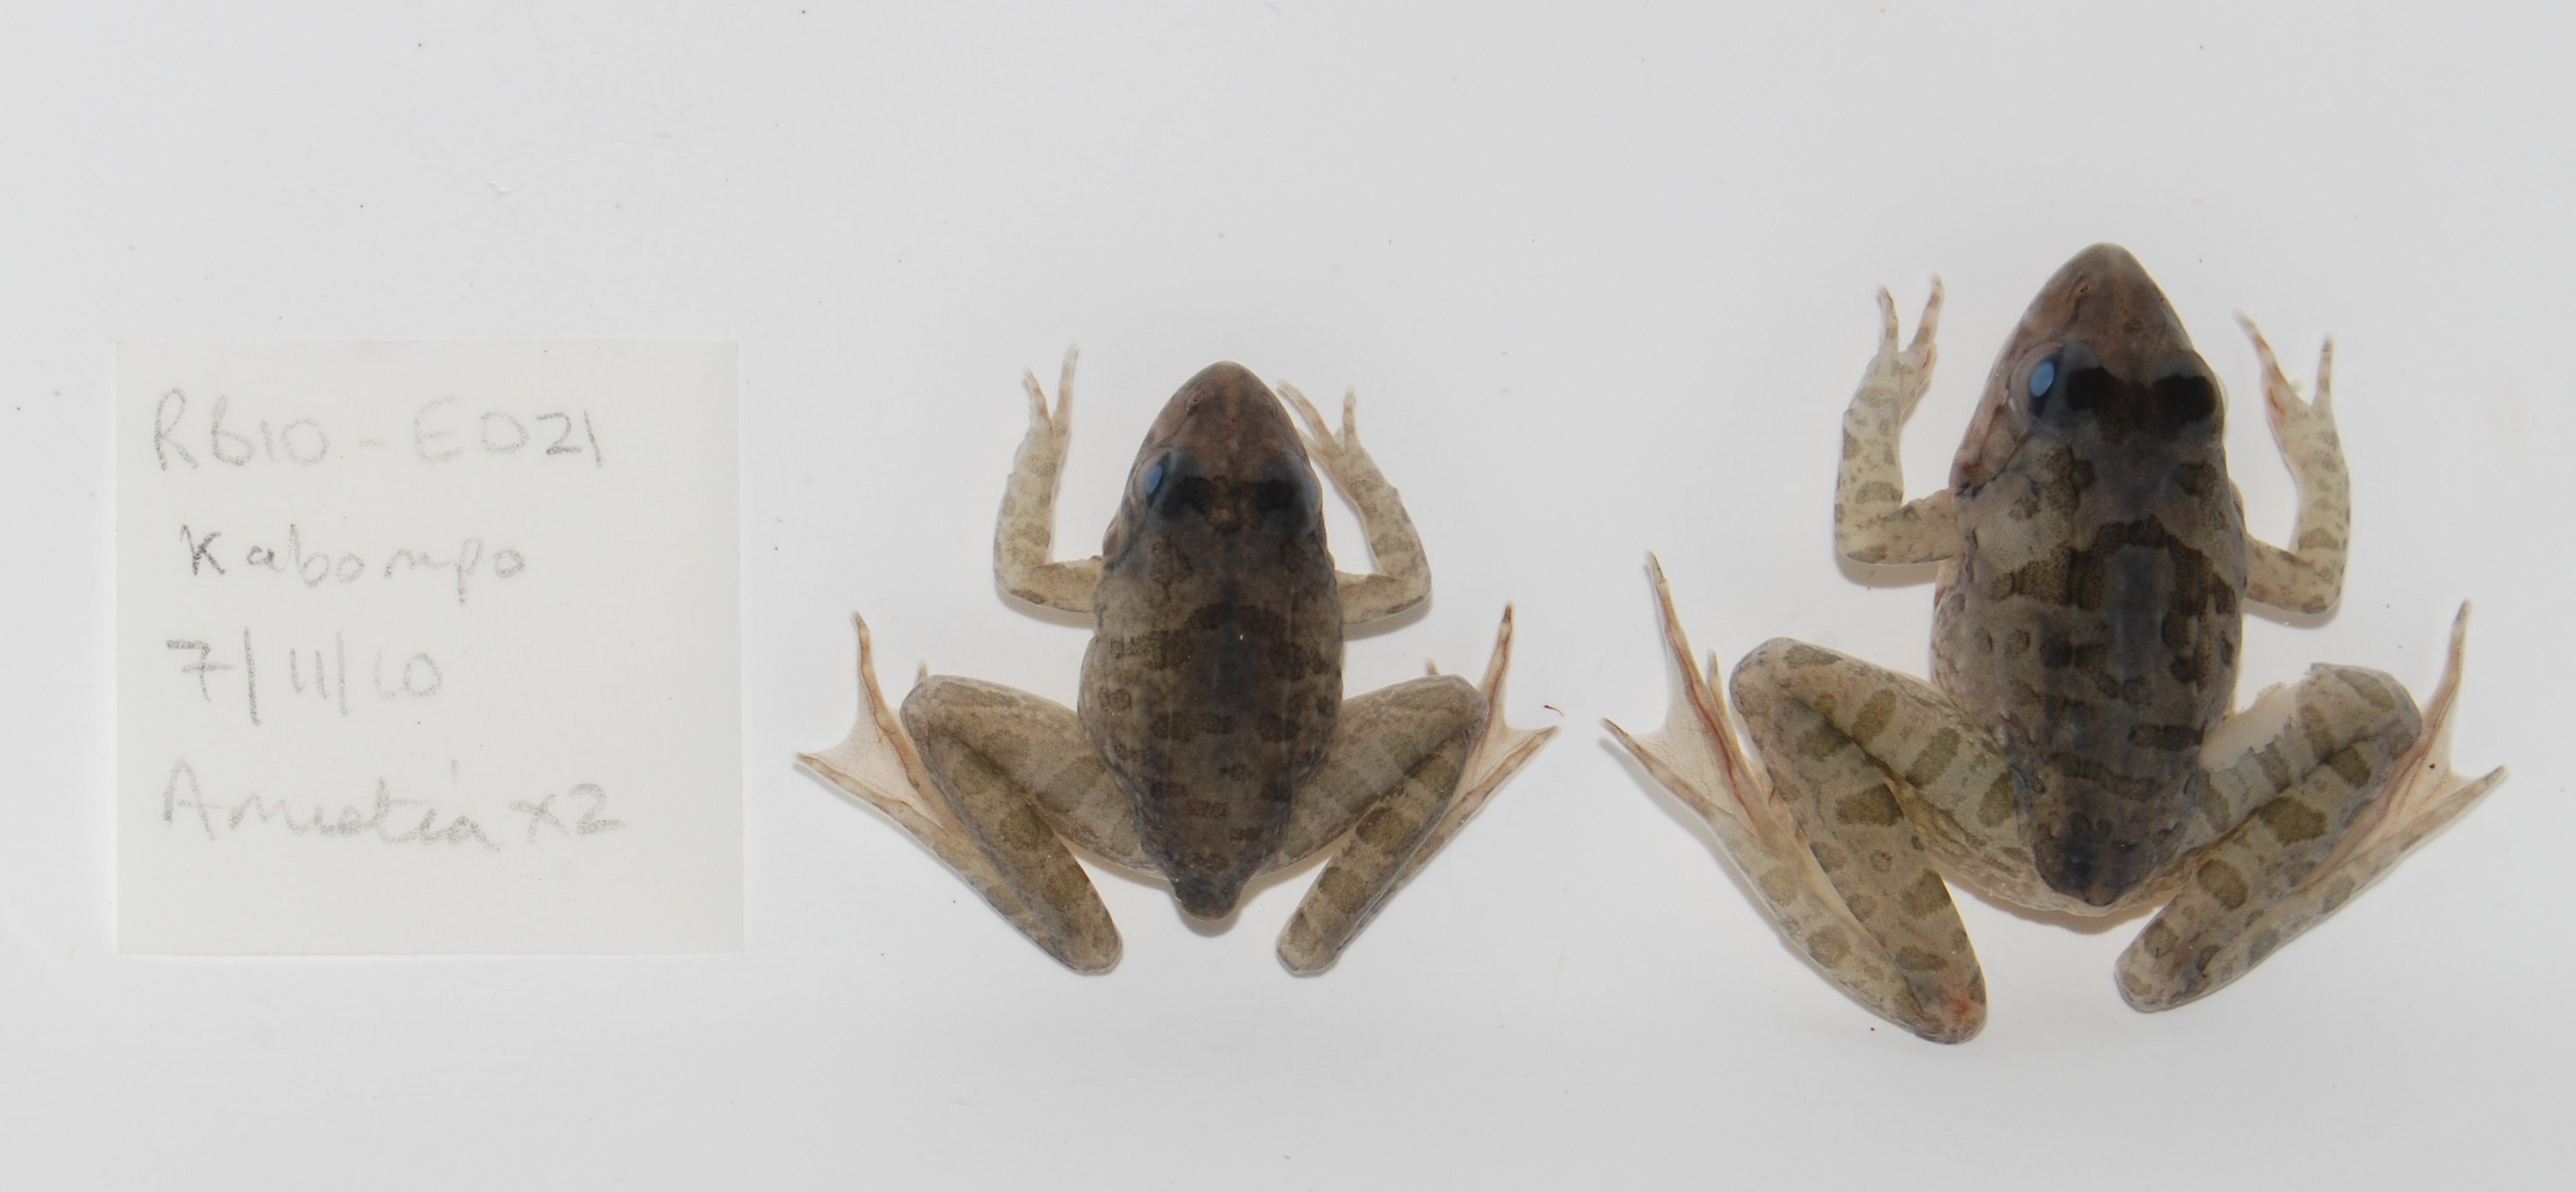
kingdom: Animalia
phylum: Chordata
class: Amphibia
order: Anura
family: Pyxicephalidae
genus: Amietia
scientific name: Amietia delalandii
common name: Delalande's river frog
